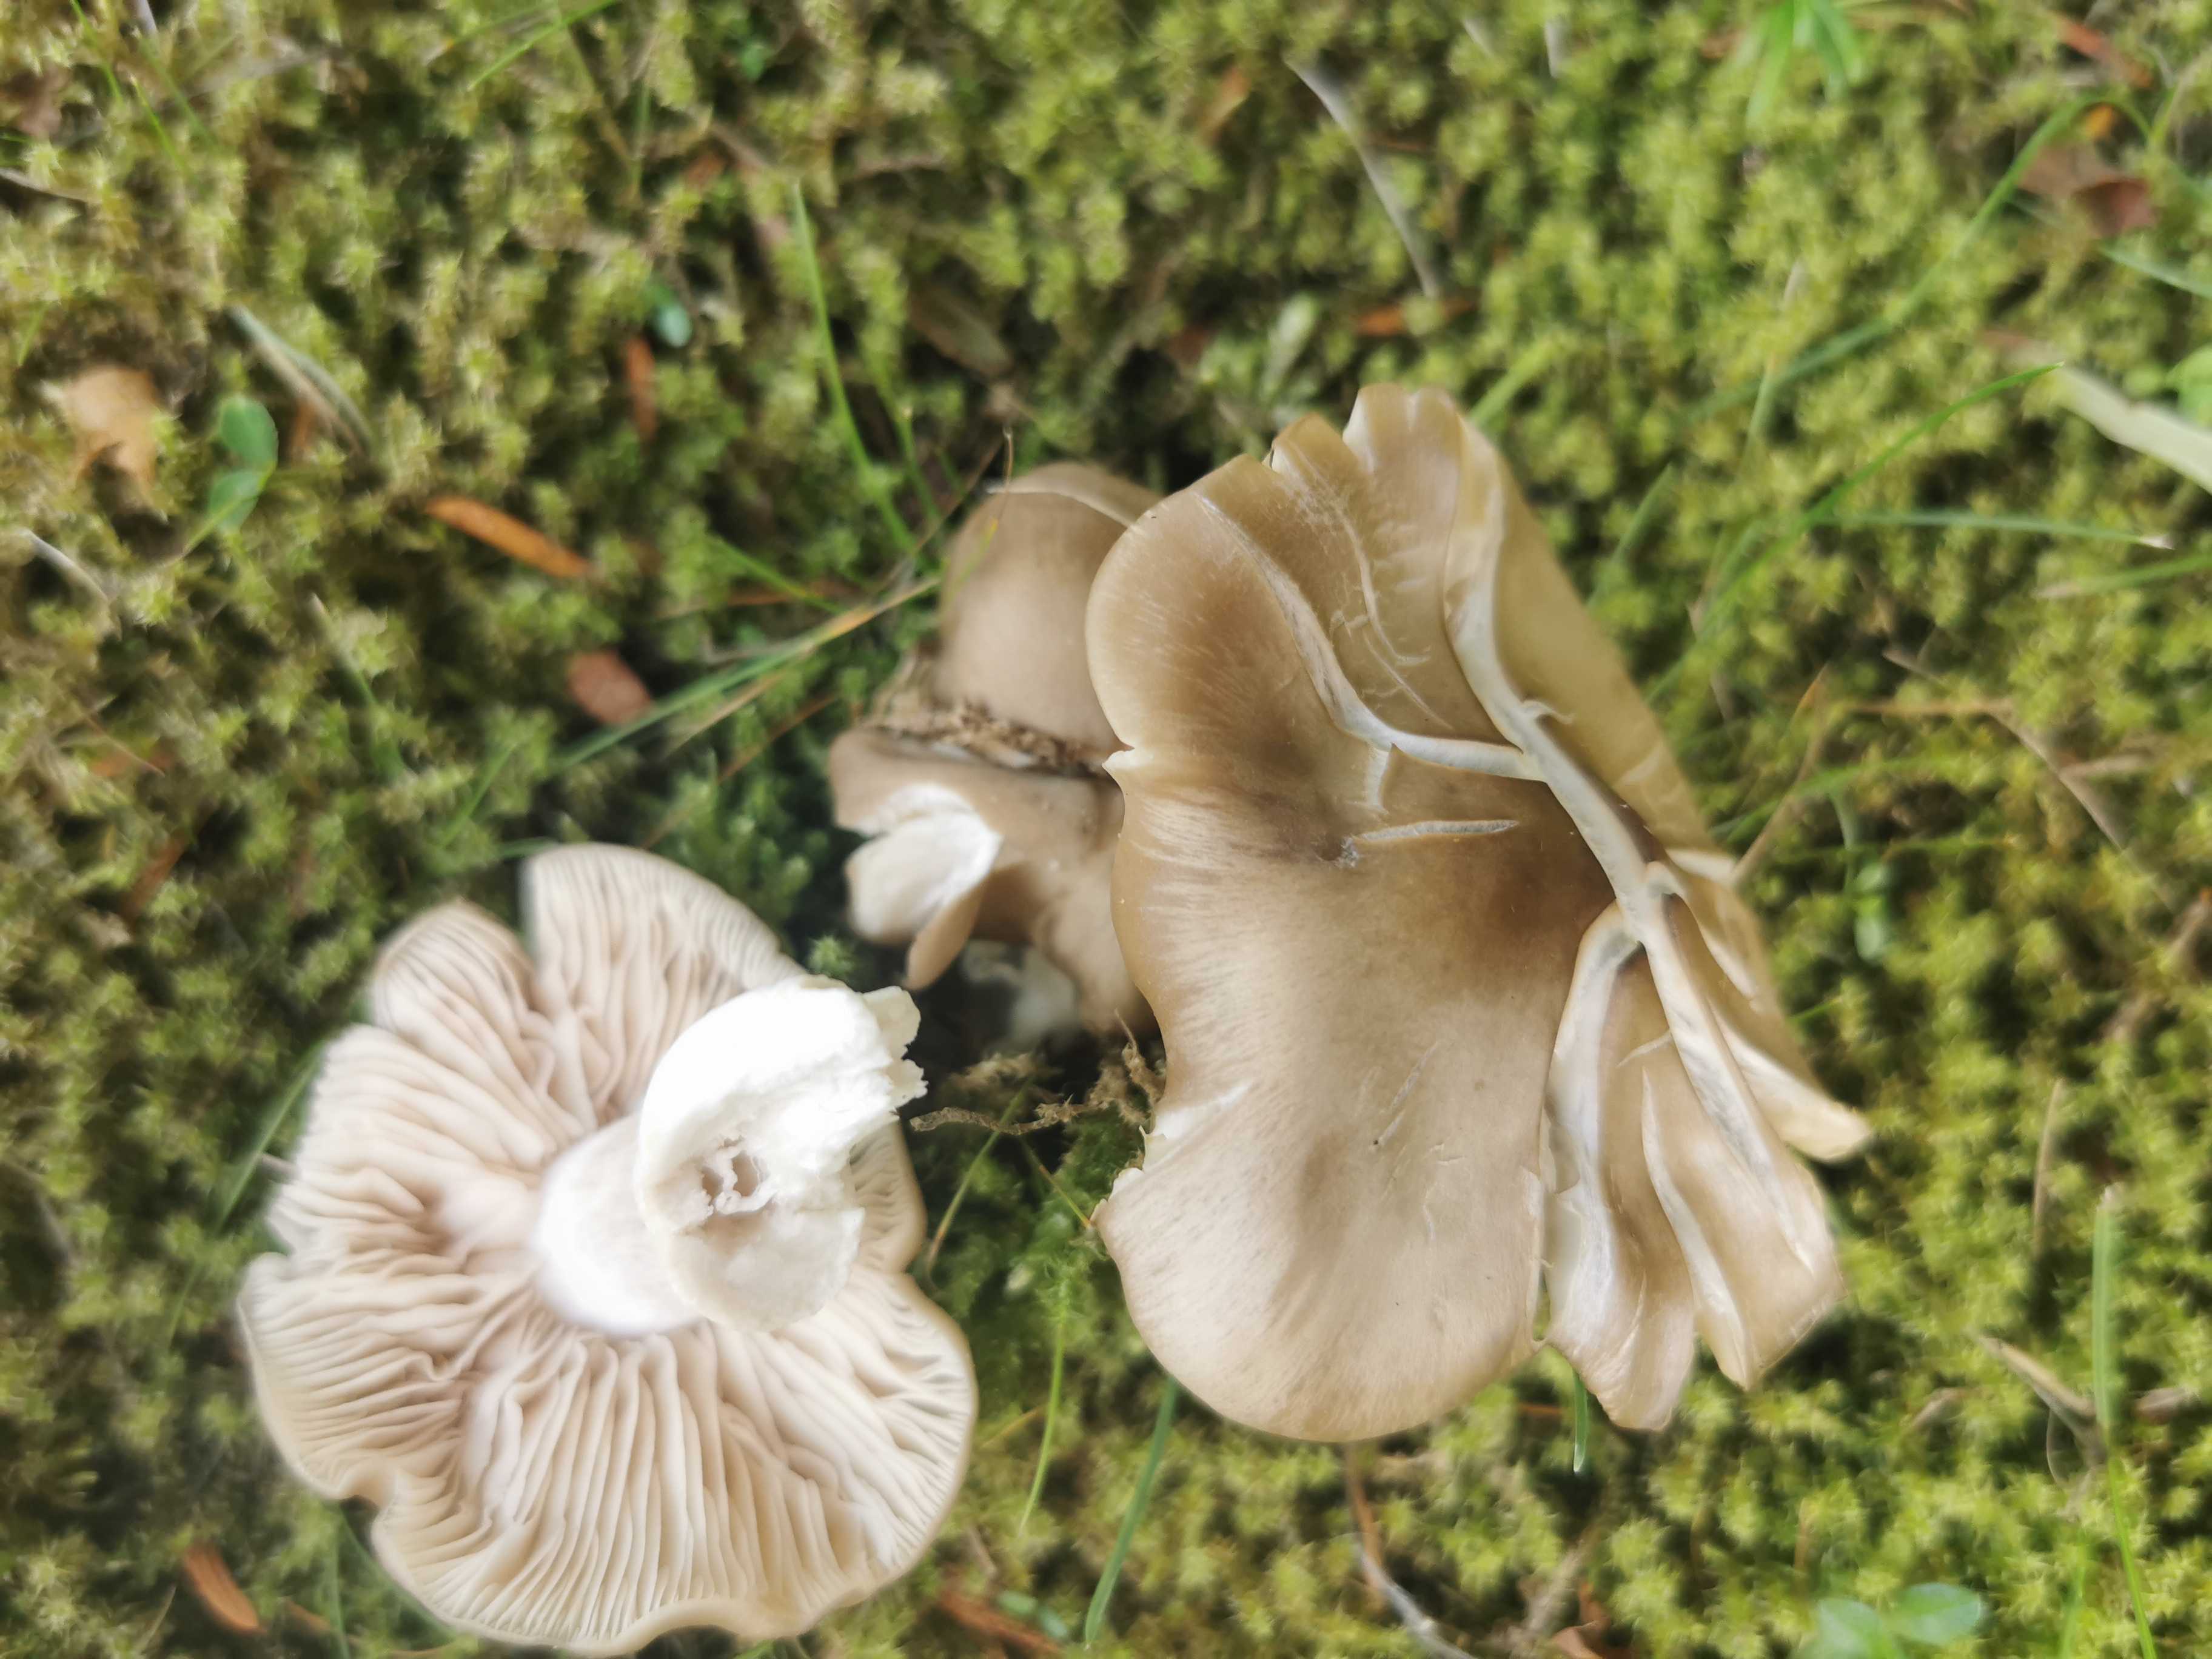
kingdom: Fungi
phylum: Basidiomycota
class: Agaricomycetes
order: Agaricales
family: Entolomataceae
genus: Entoloma
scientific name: Entoloma lividoalbum
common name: lysstokket rødblad
